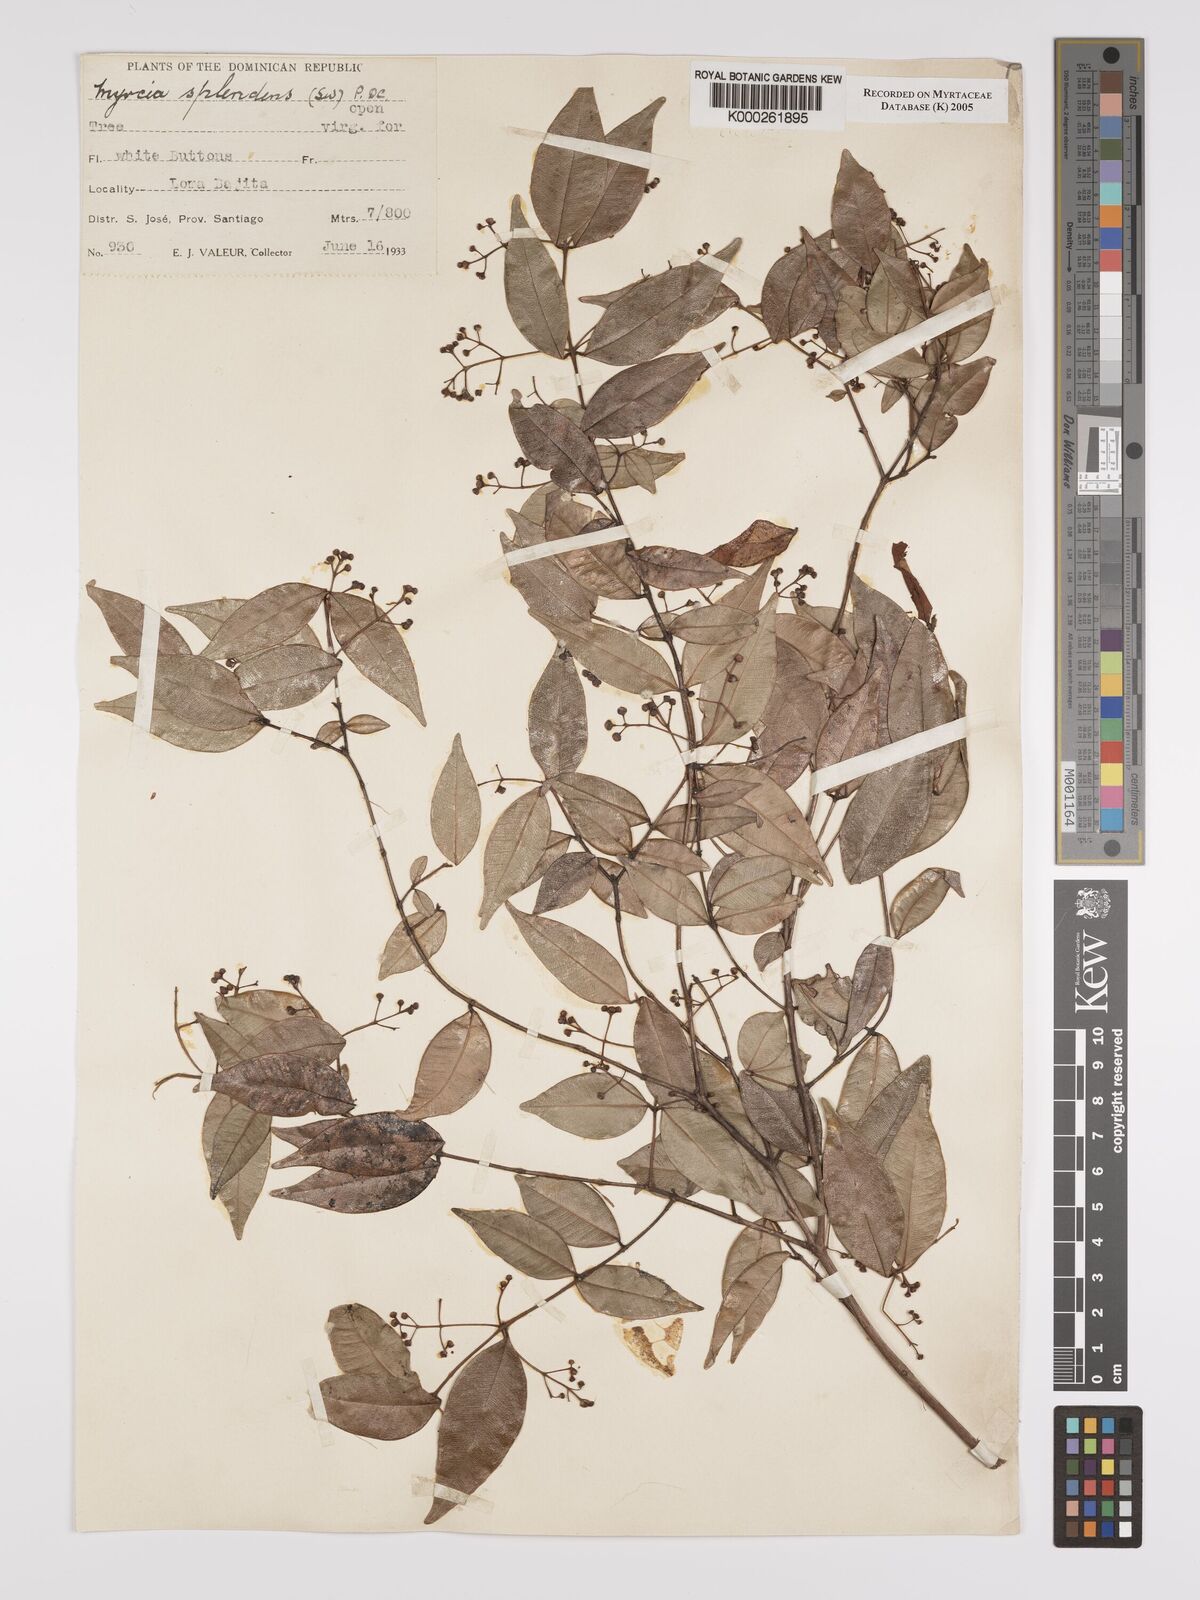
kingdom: Plantae
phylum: Tracheophyta
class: Magnoliopsida
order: Myrtales
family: Myrtaceae
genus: Myrcia
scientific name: Myrcia splendens
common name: Surinam cherry
